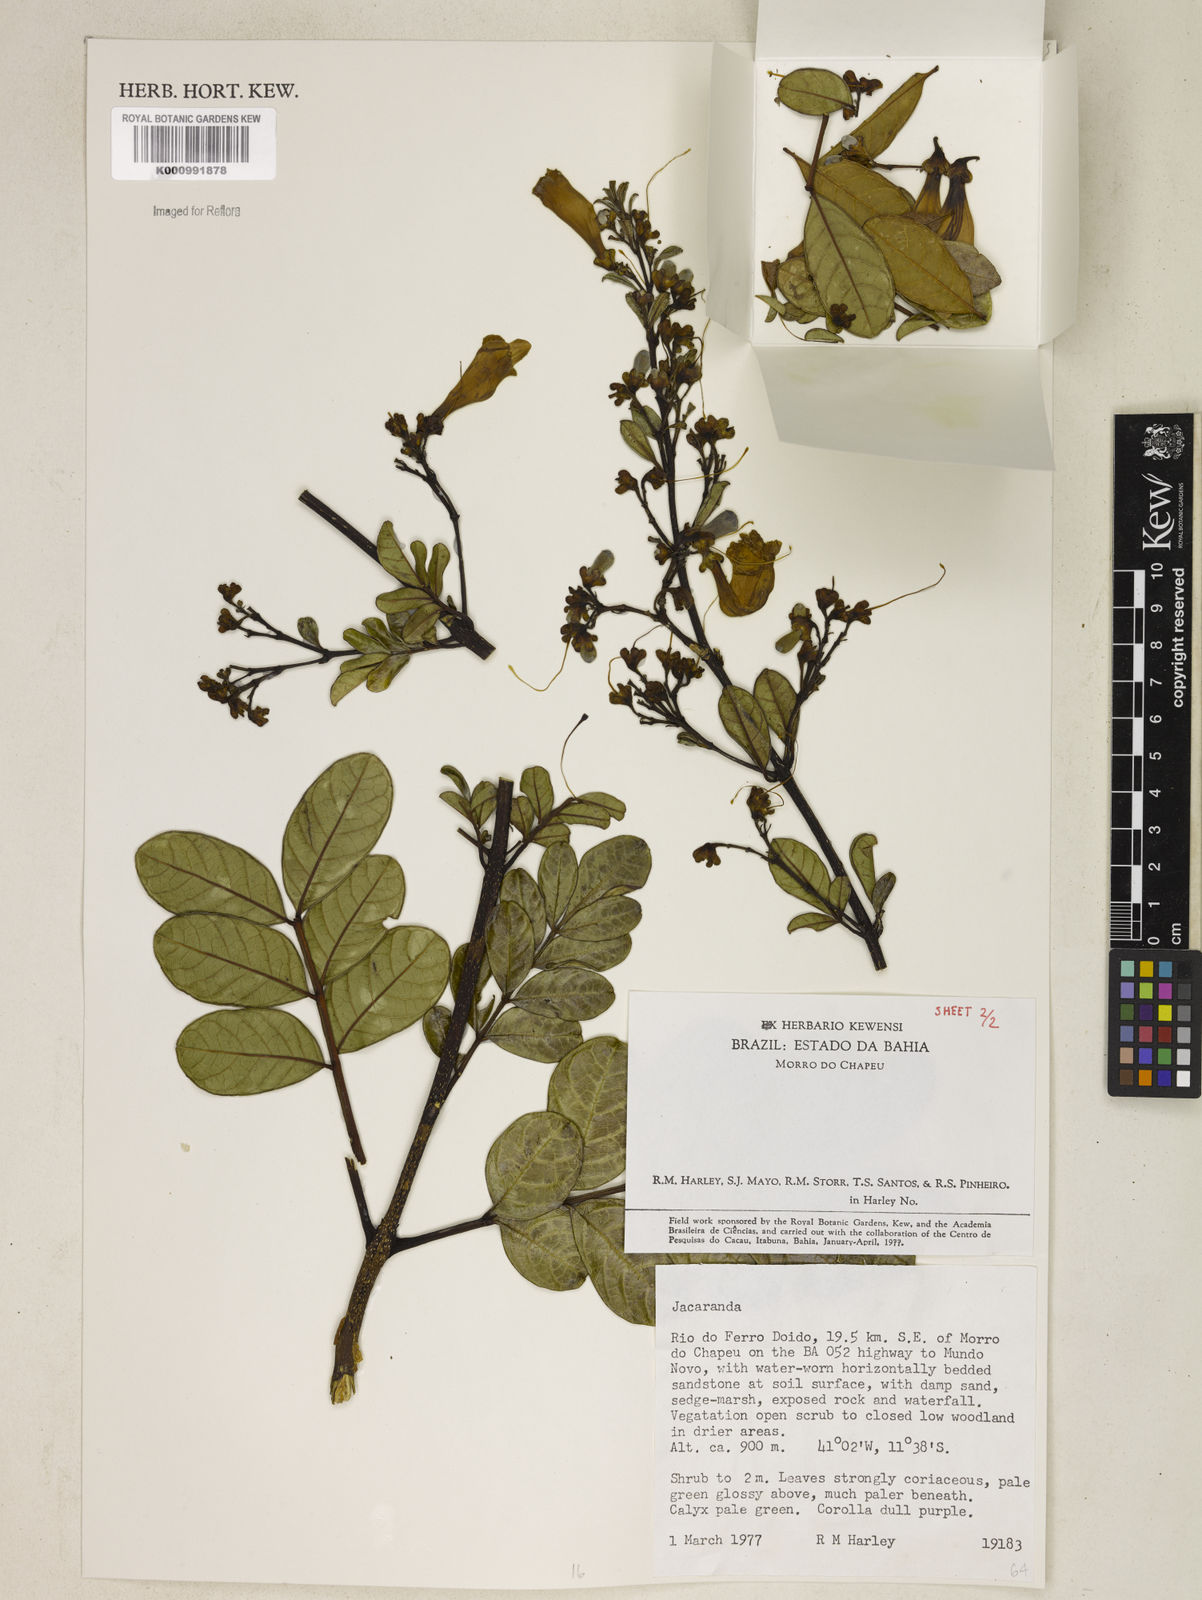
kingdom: Plantae
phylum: Tracheophyta
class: Magnoliopsida
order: Lamiales
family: Bignoniaceae
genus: Jacaranda
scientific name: Jacaranda
